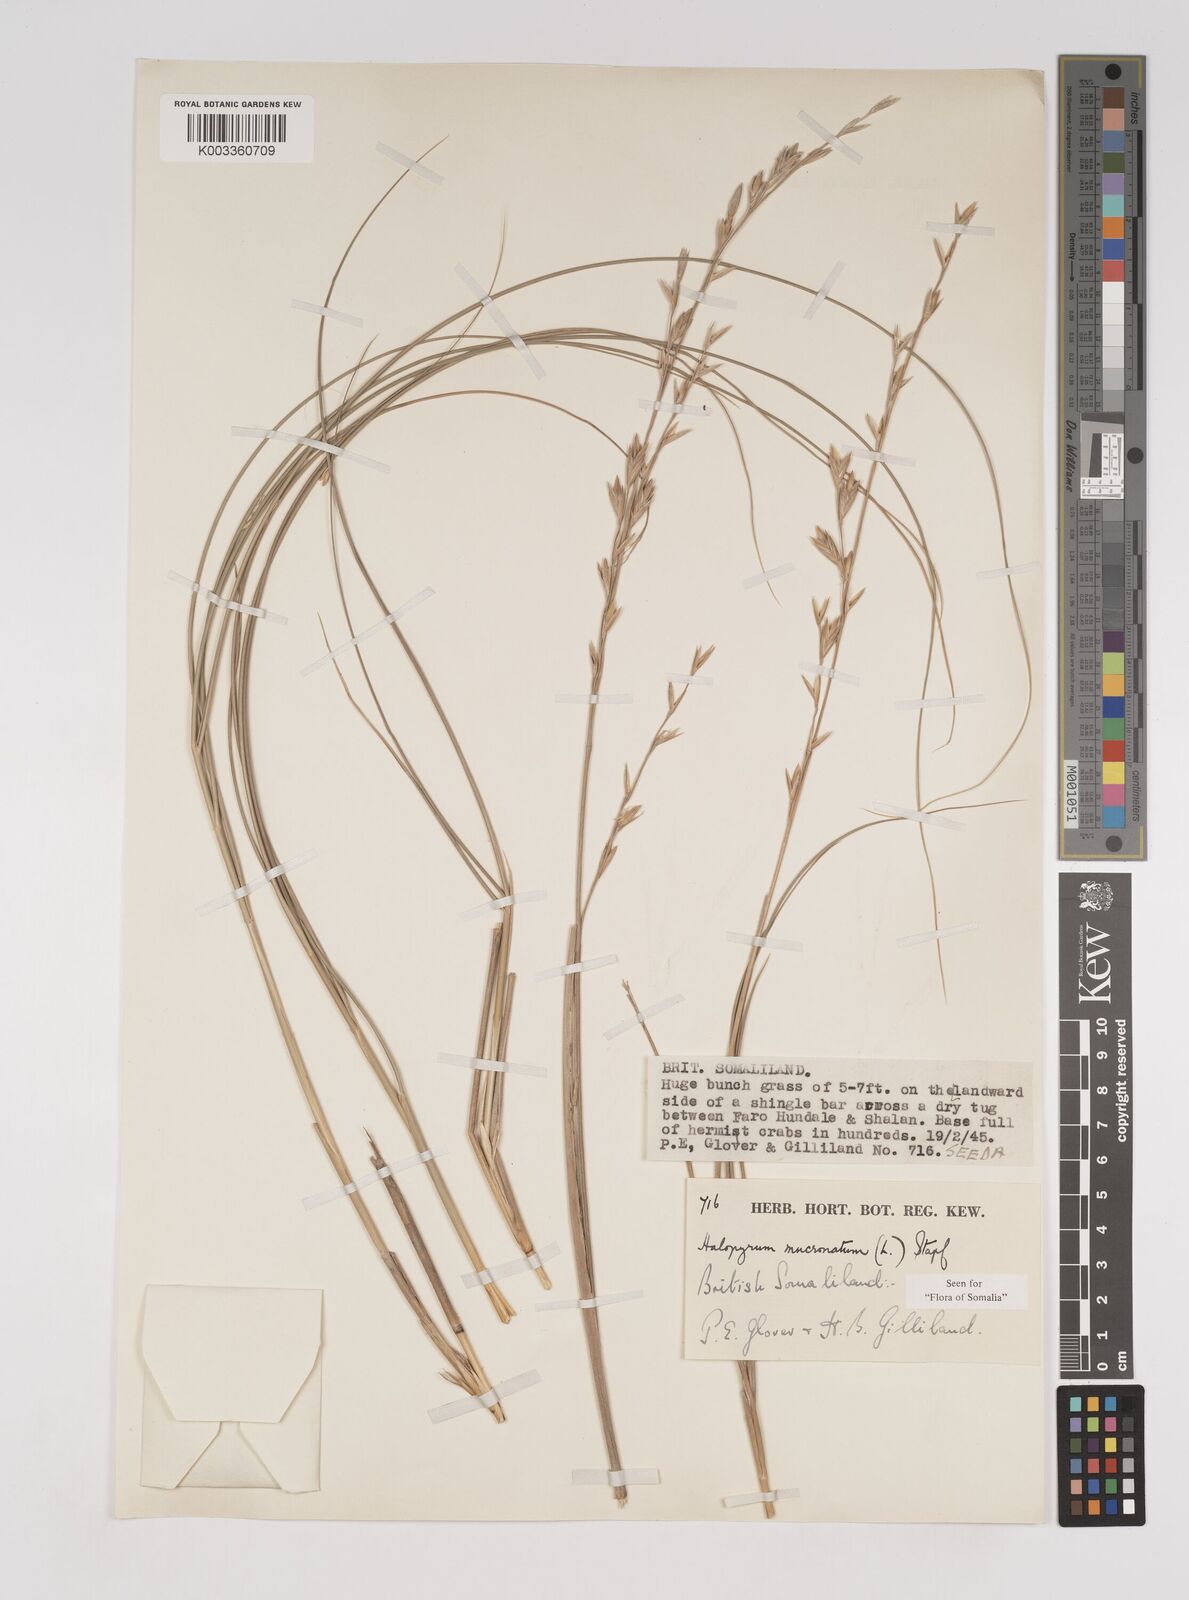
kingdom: Plantae
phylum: Tracheophyta
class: Liliopsida
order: Poales
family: Poaceae
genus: Halopyrum
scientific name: Halopyrum mucronatum
